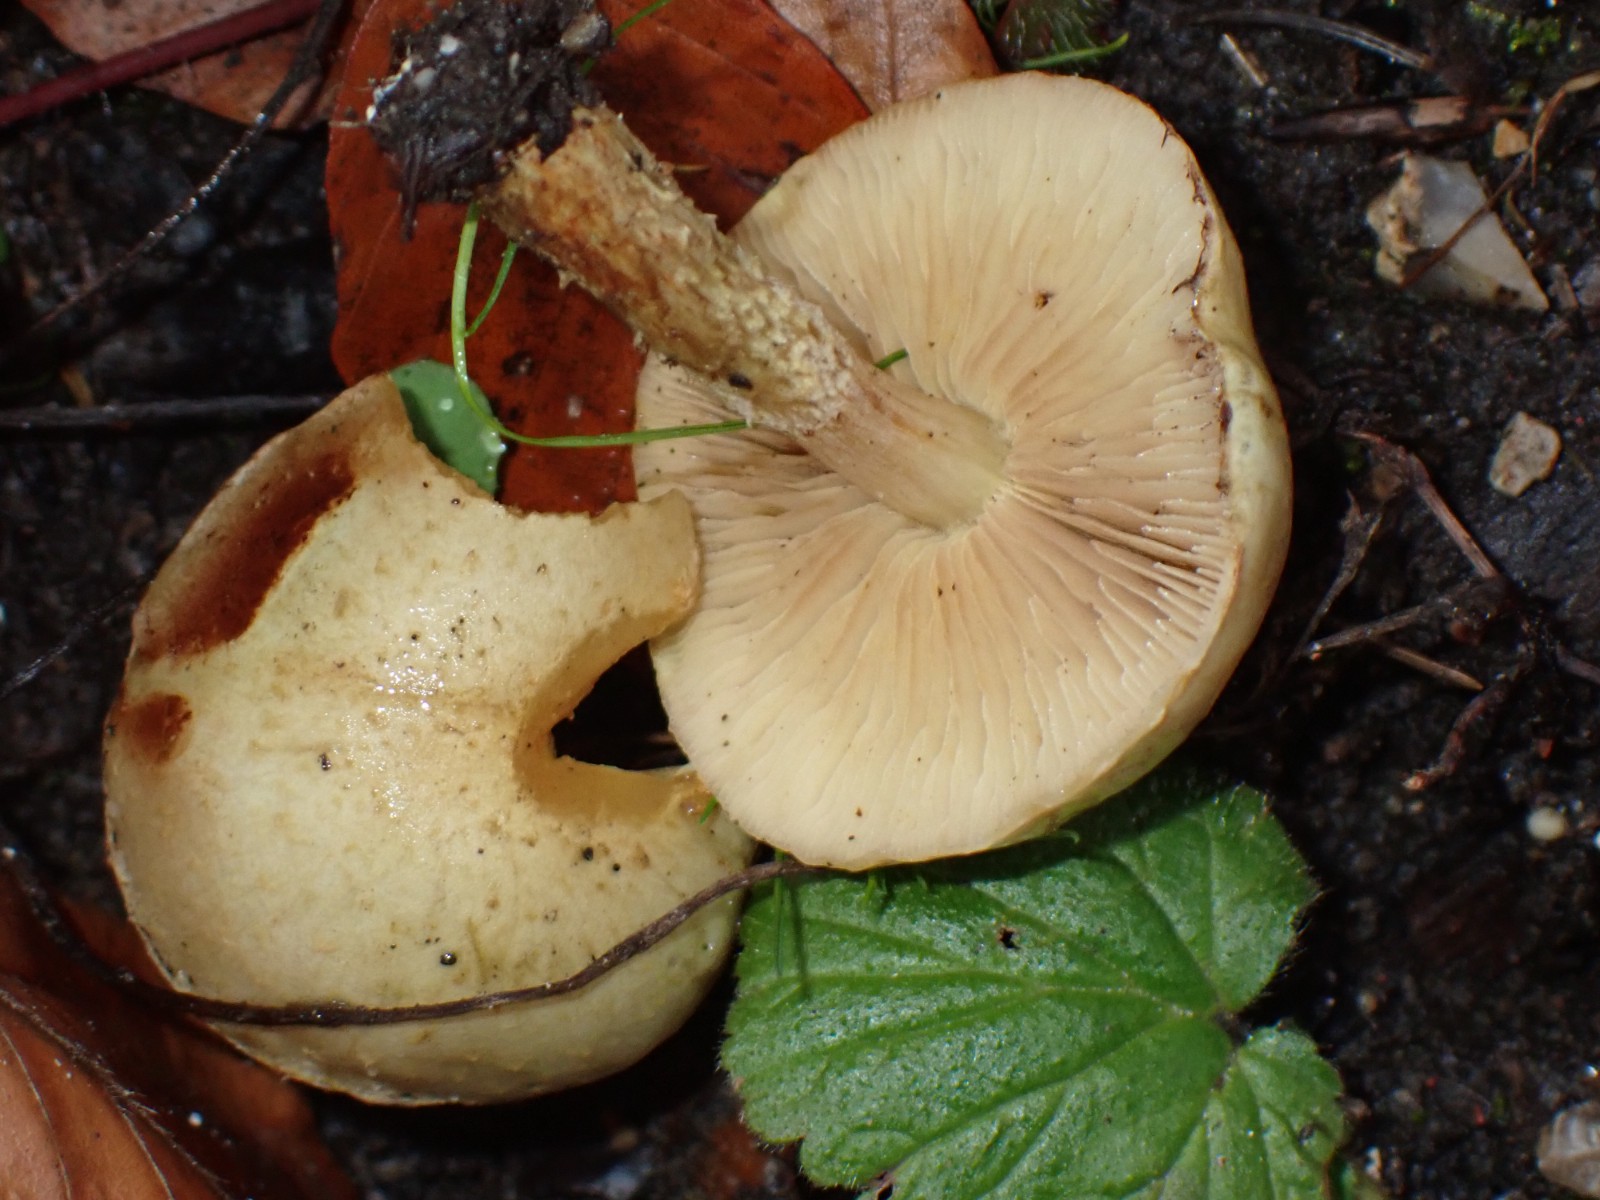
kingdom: Fungi
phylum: Basidiomycota
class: Agaricomycetes
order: Agaricales
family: Strophariaceae
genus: Pholiota
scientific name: Pholiota lenta
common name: løv-skælhat
